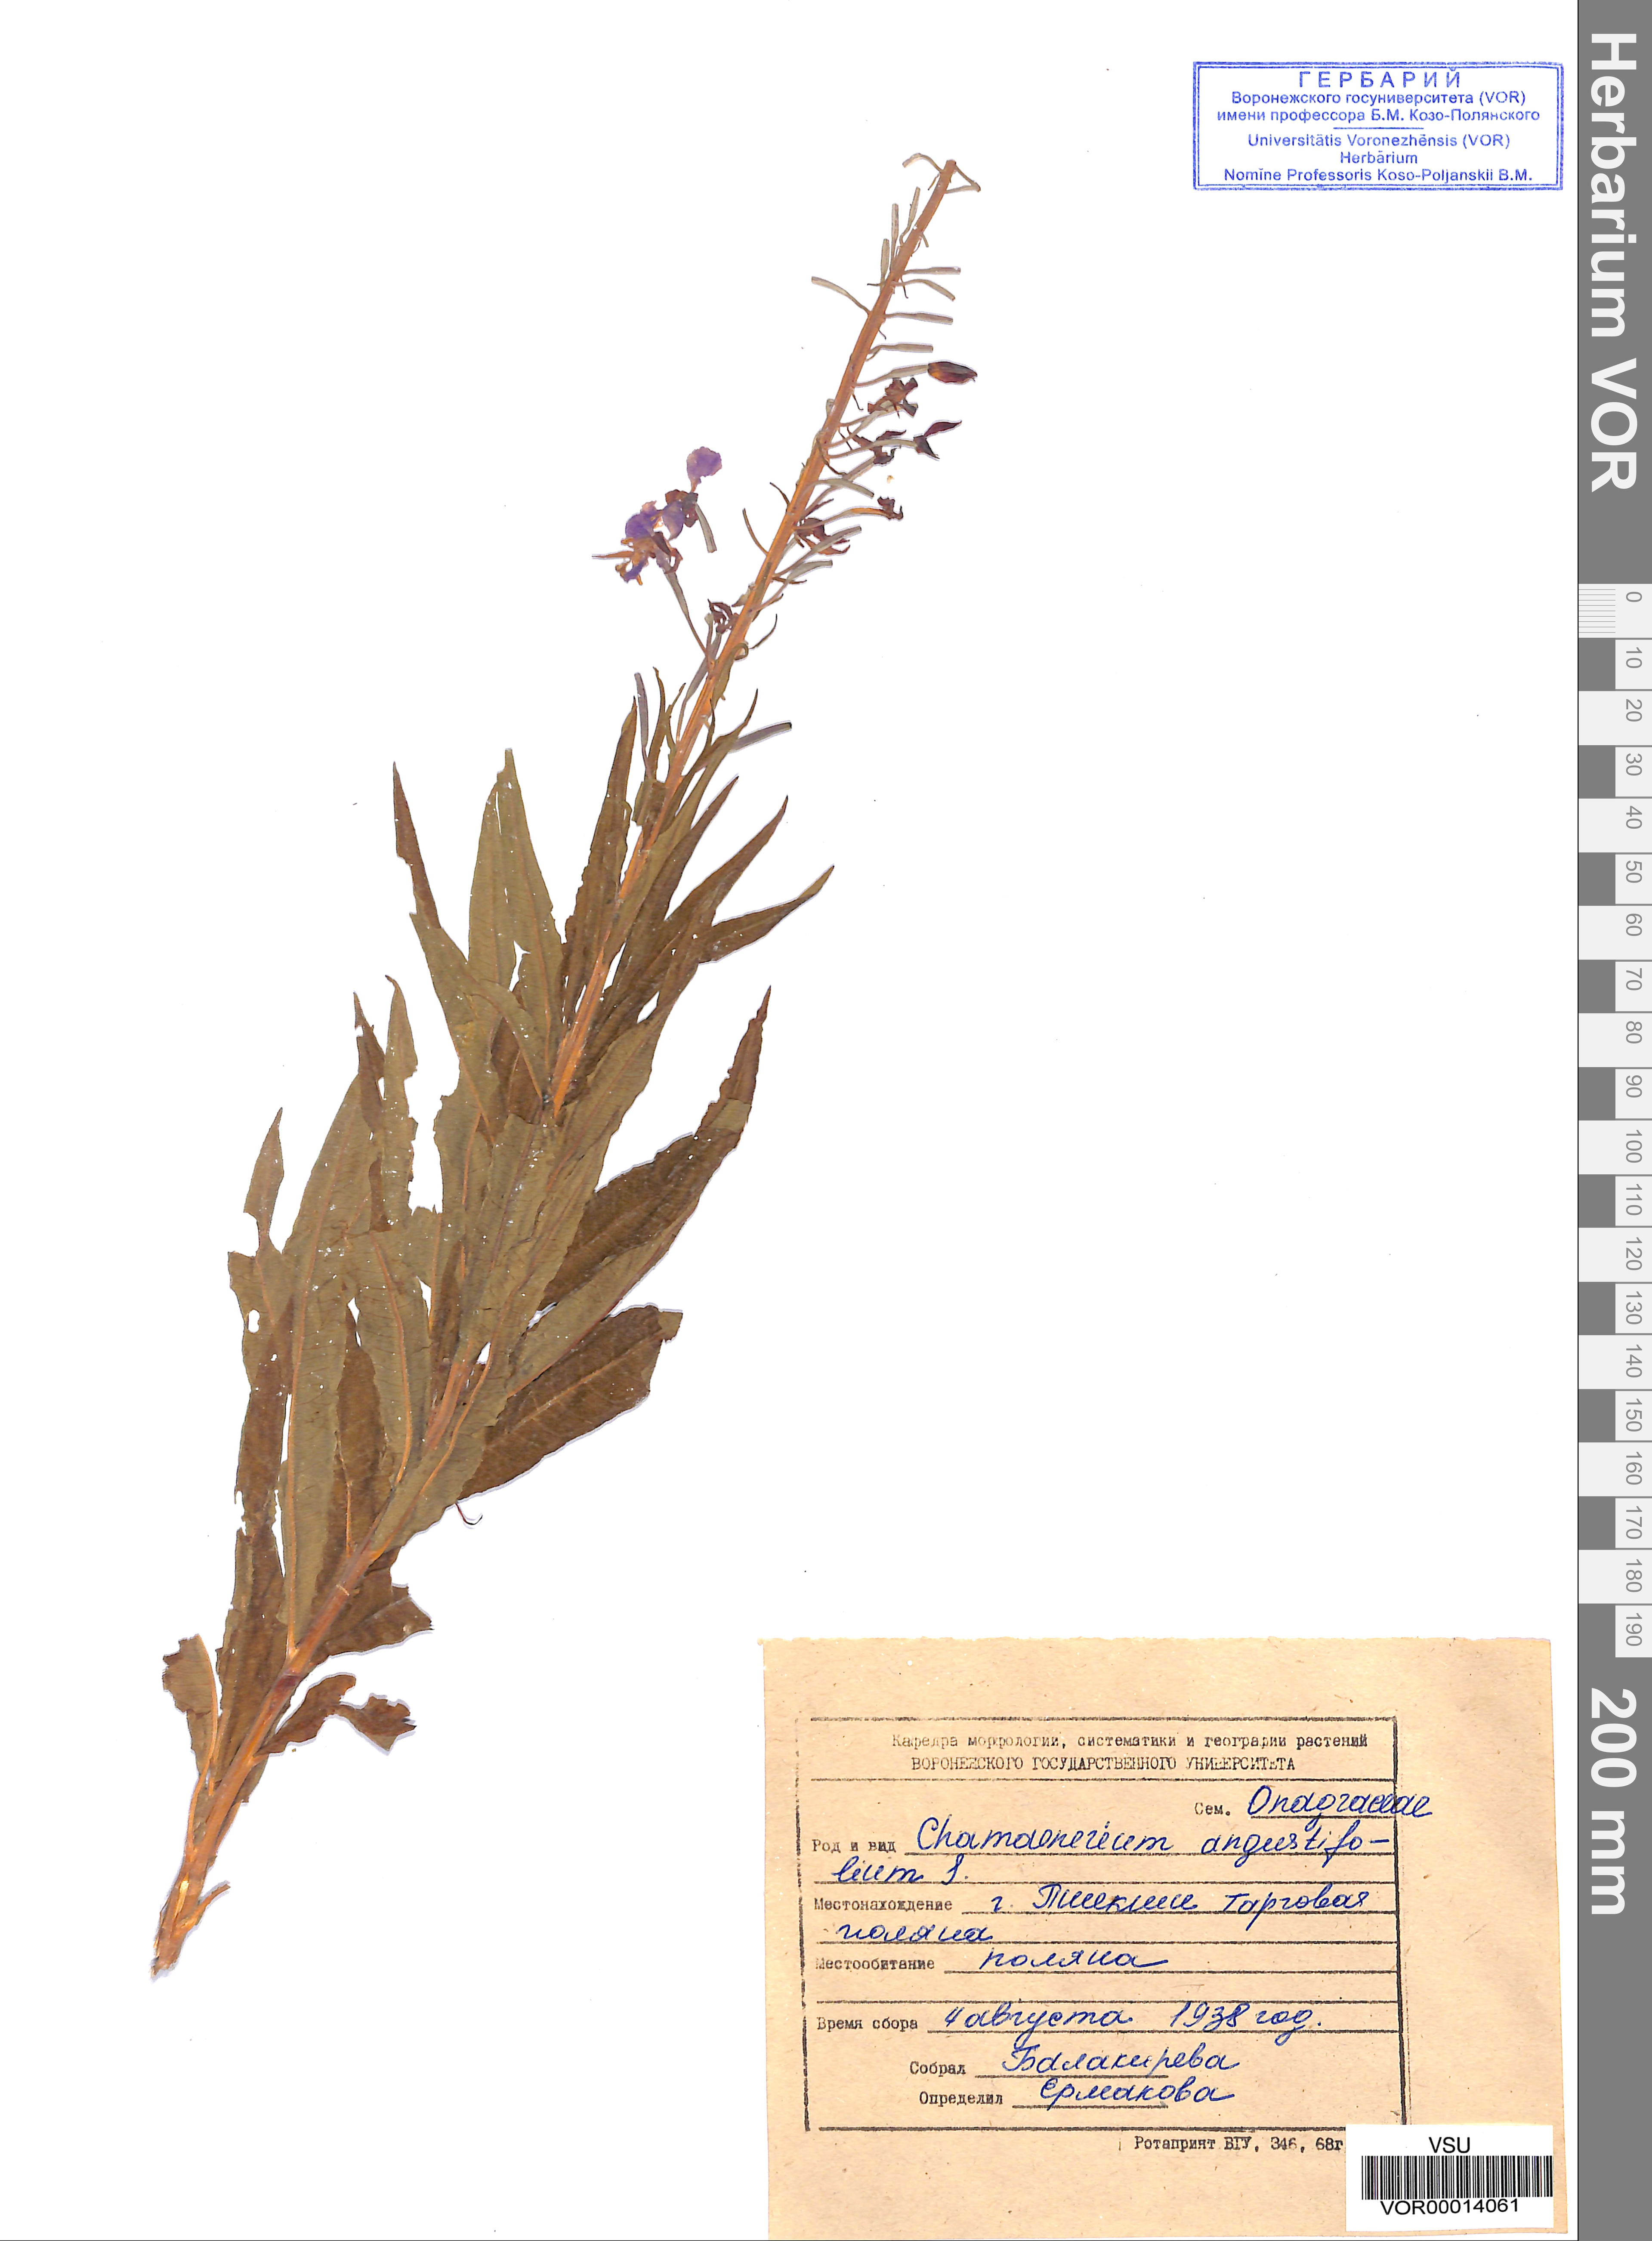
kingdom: Plantae
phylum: Tracheophyta
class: Magnoliopsida
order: Myrtales
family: Onagraceae
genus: Chamaenerion
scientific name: Chamaenerion angustifolium
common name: Fireweed
